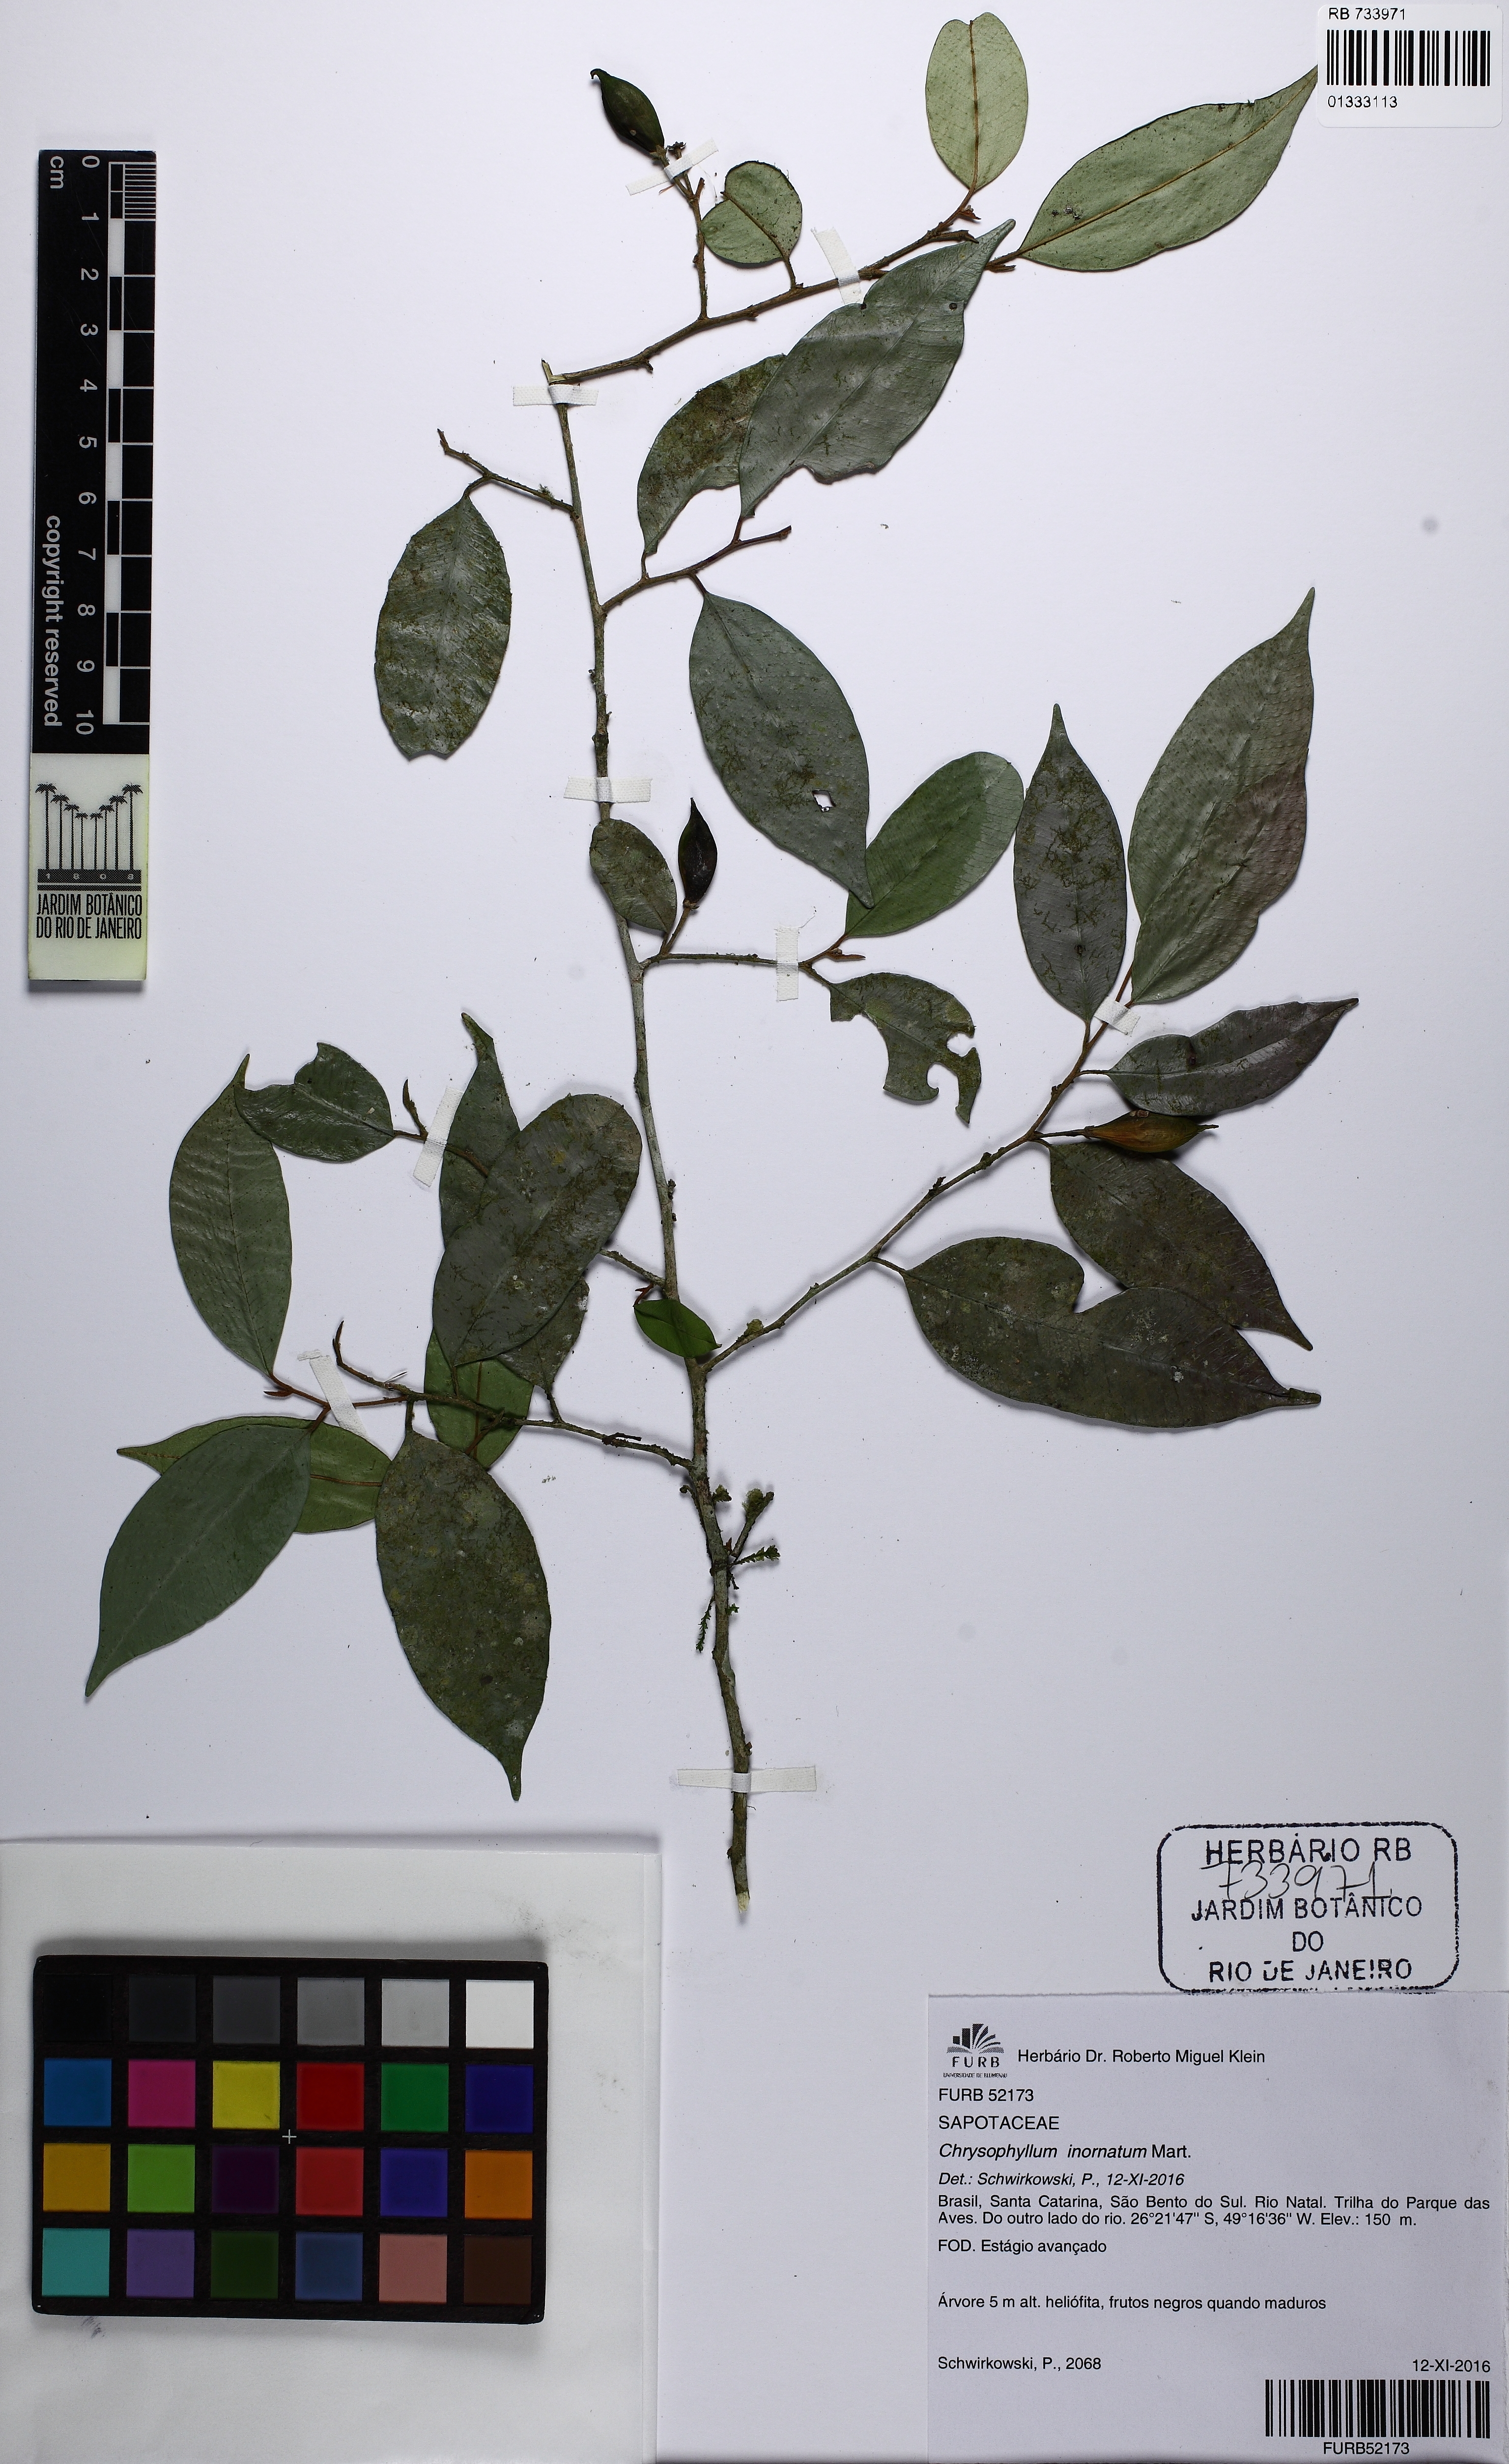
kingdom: Plantae
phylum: Tracheophyta
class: Magnoliopsida
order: Ericales
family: Sapotaceae
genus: Chrysophyllum
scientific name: Chrysophyllum inornatum
